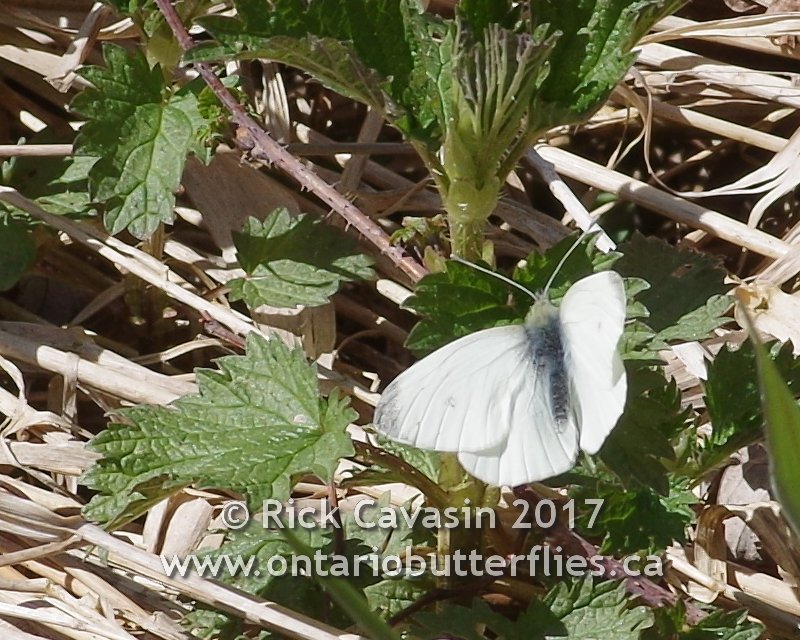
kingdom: Animalia
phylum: Arthropoda
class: Insecta
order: Lepidoptera
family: Pieridae
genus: Pieris
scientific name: Pieris rapae
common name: Cabbage White
